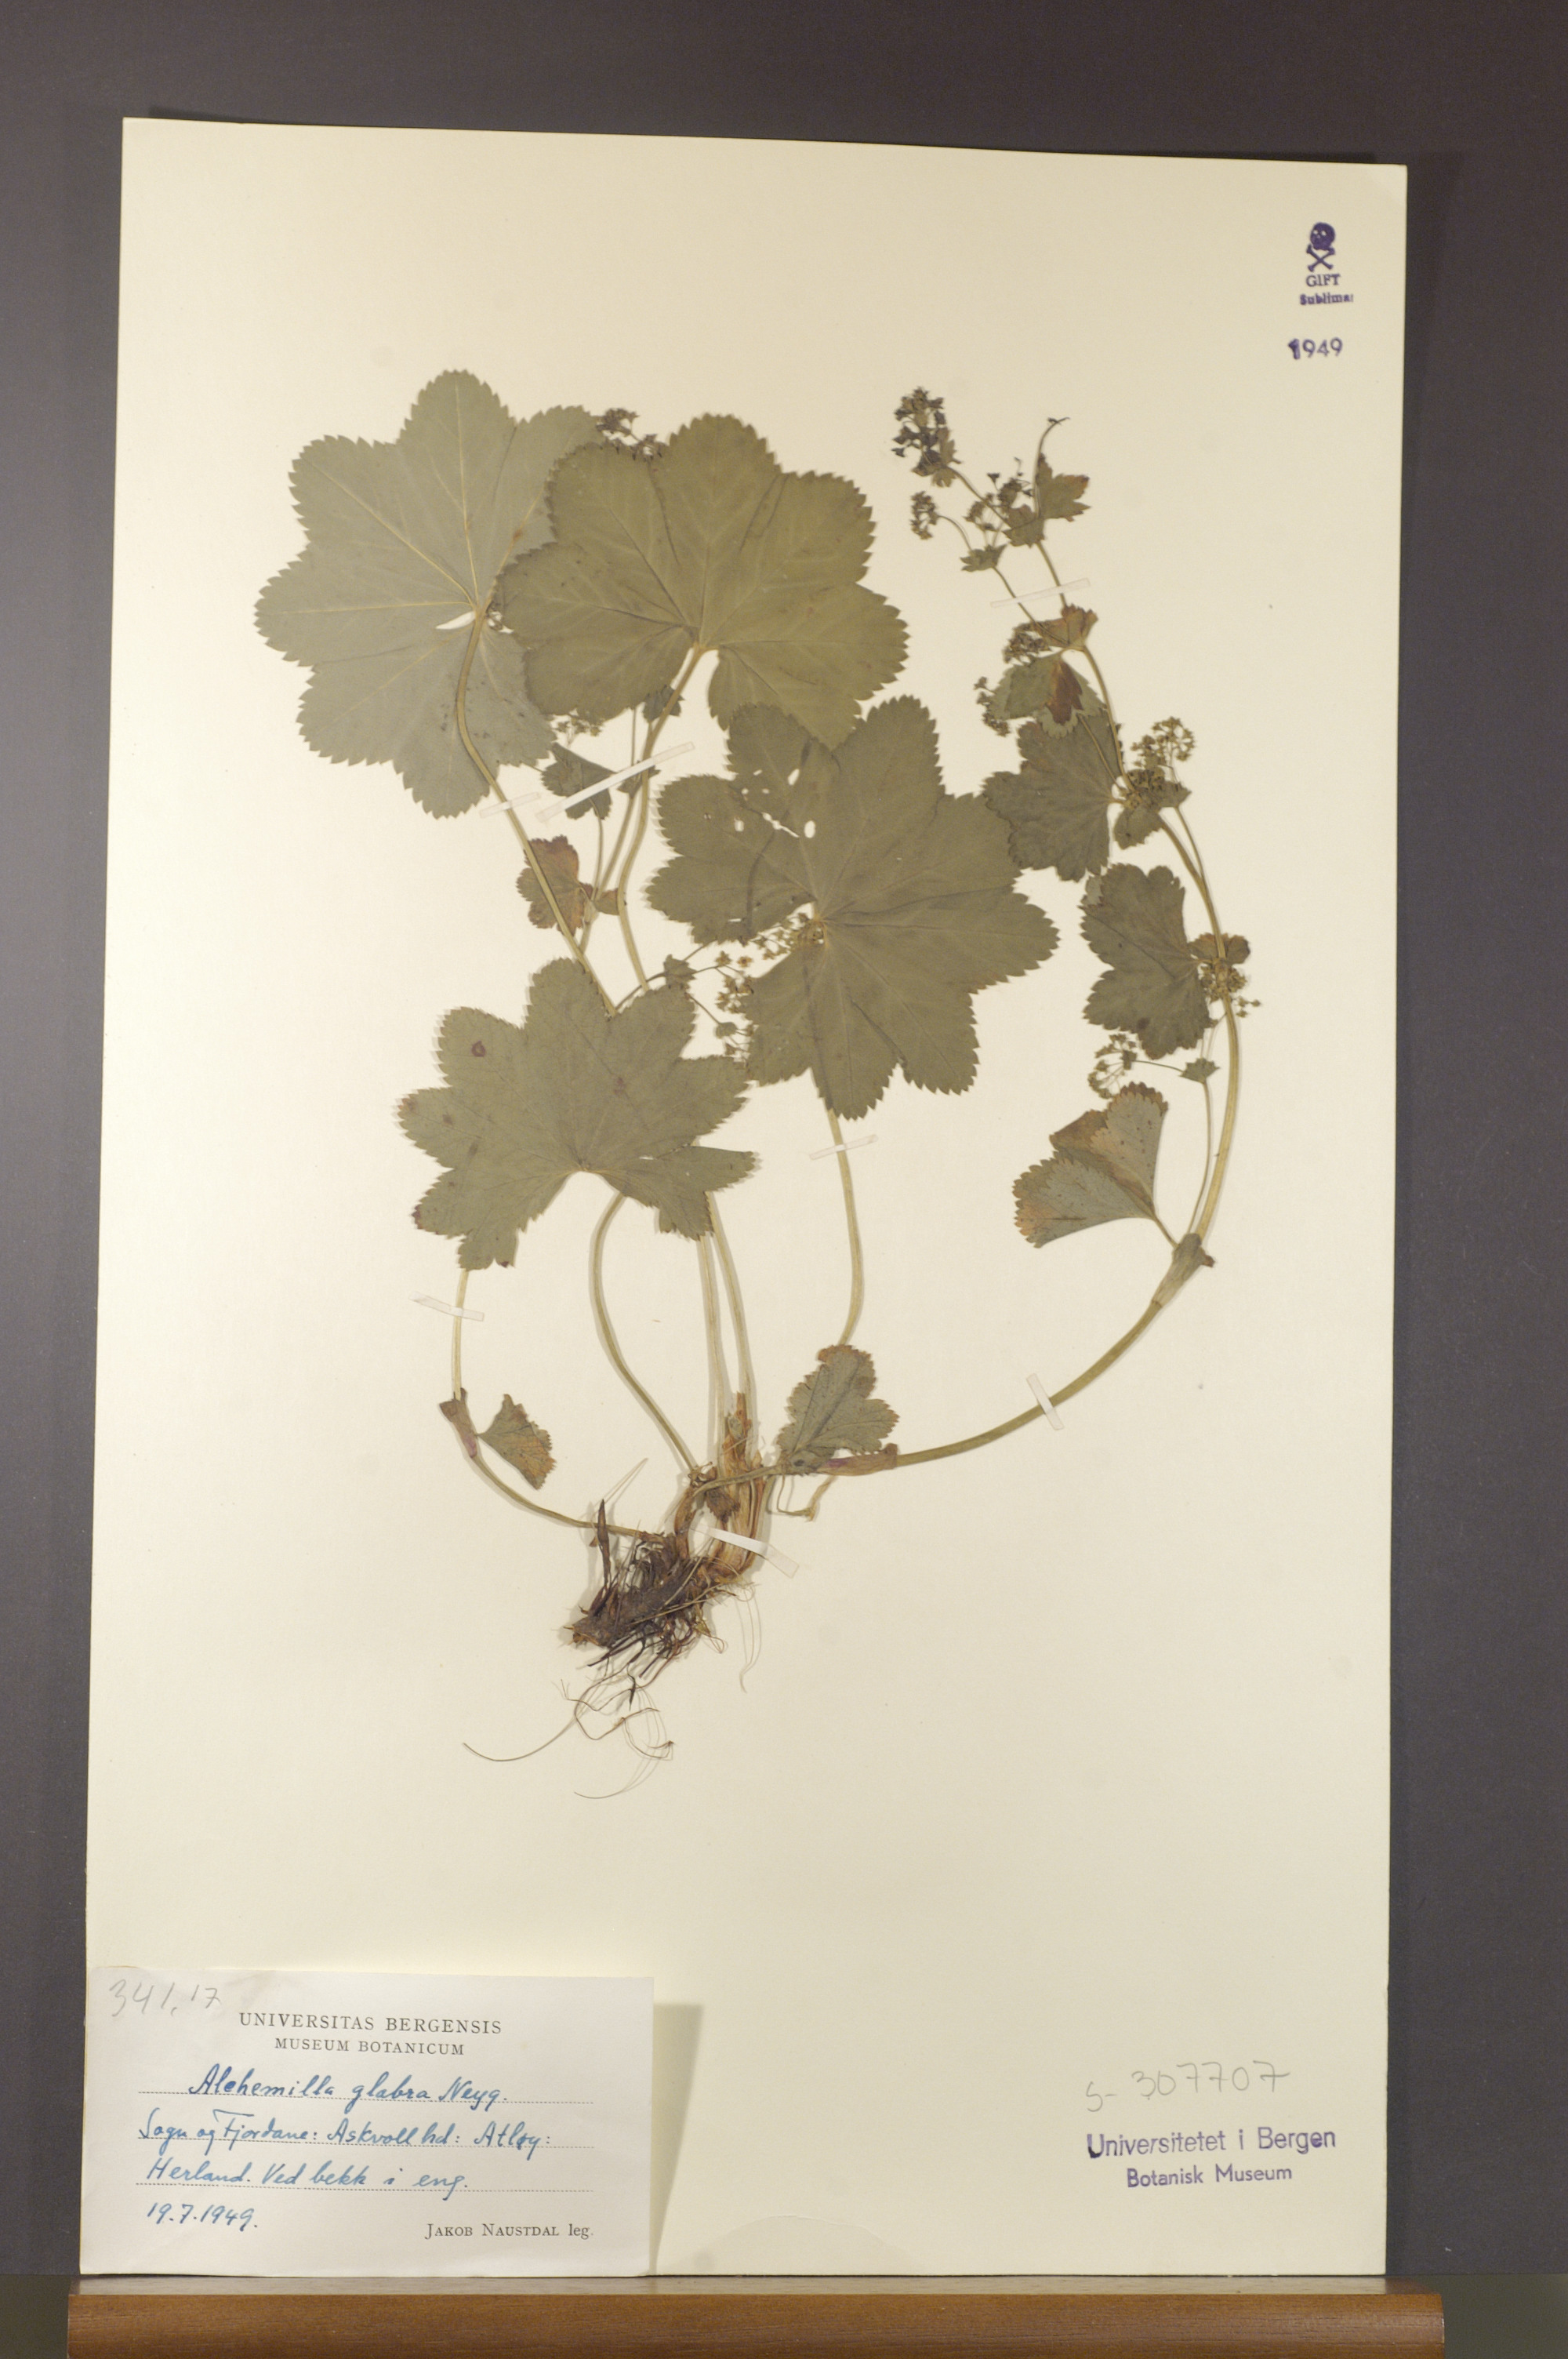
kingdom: Plantae
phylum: Tracheophyta
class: Magnoliopsida
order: Rosales
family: Rosaceae
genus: Alchemilla
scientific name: Alchemilla glabra
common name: Smooth lady's-mantle
